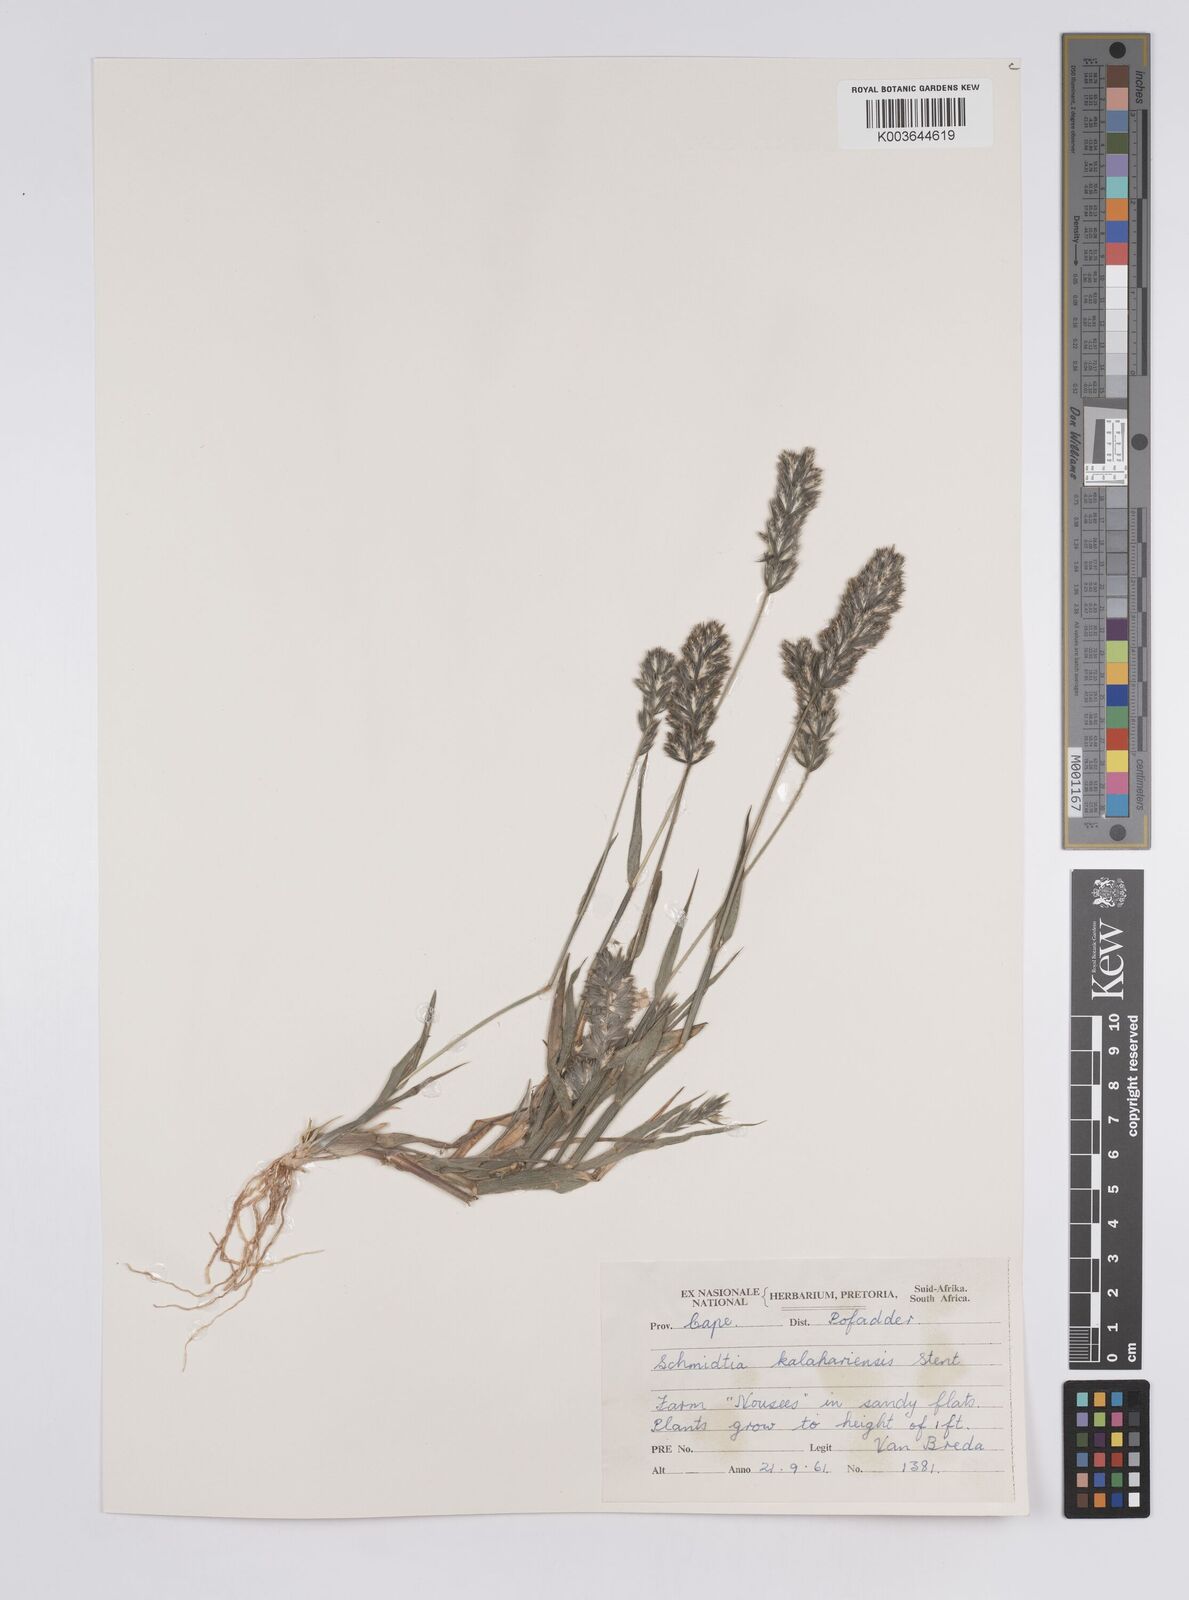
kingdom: Plantae
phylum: Tracheophyta
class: Liliopsida
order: Poales
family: Poaceae
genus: Schmidtia
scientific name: Schmidtia kalahariensis
